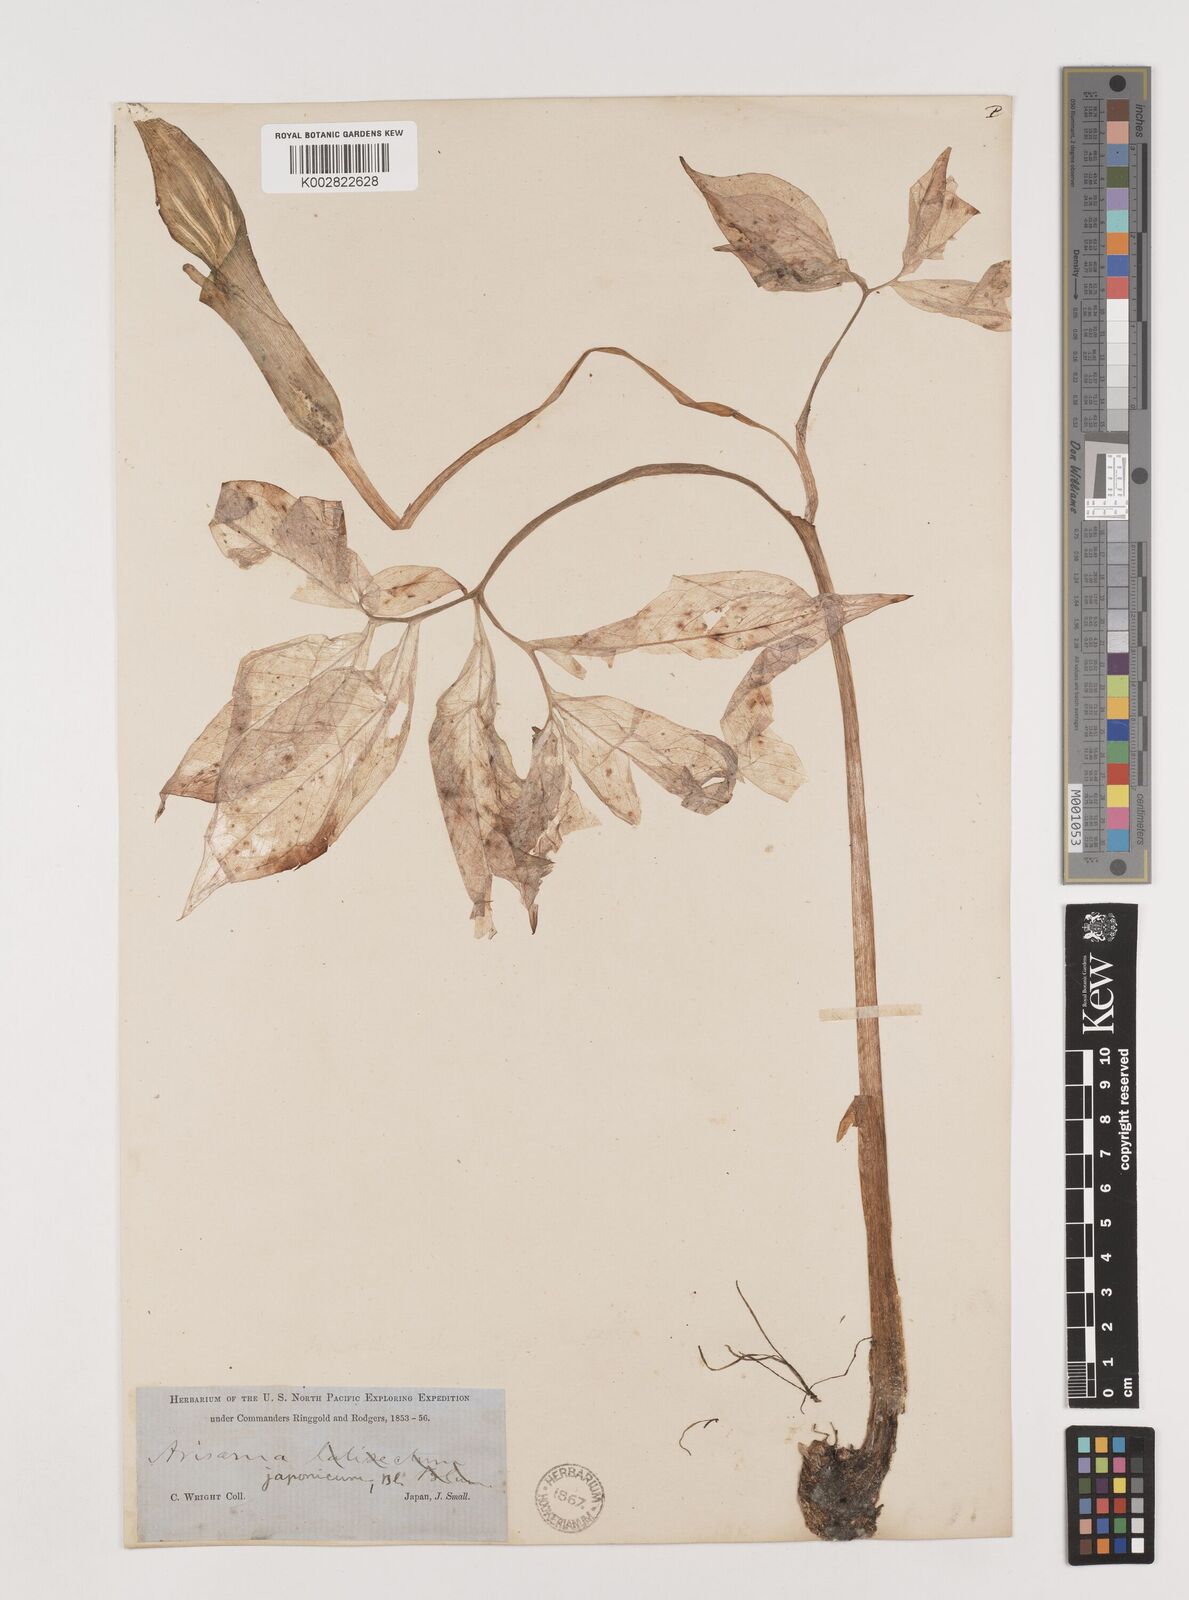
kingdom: Plantae
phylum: Tracheophyta
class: Liliopsida
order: Alismatales
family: Araceae
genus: Arisaema
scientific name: Arisaema serratum
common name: Japanese arisaema
